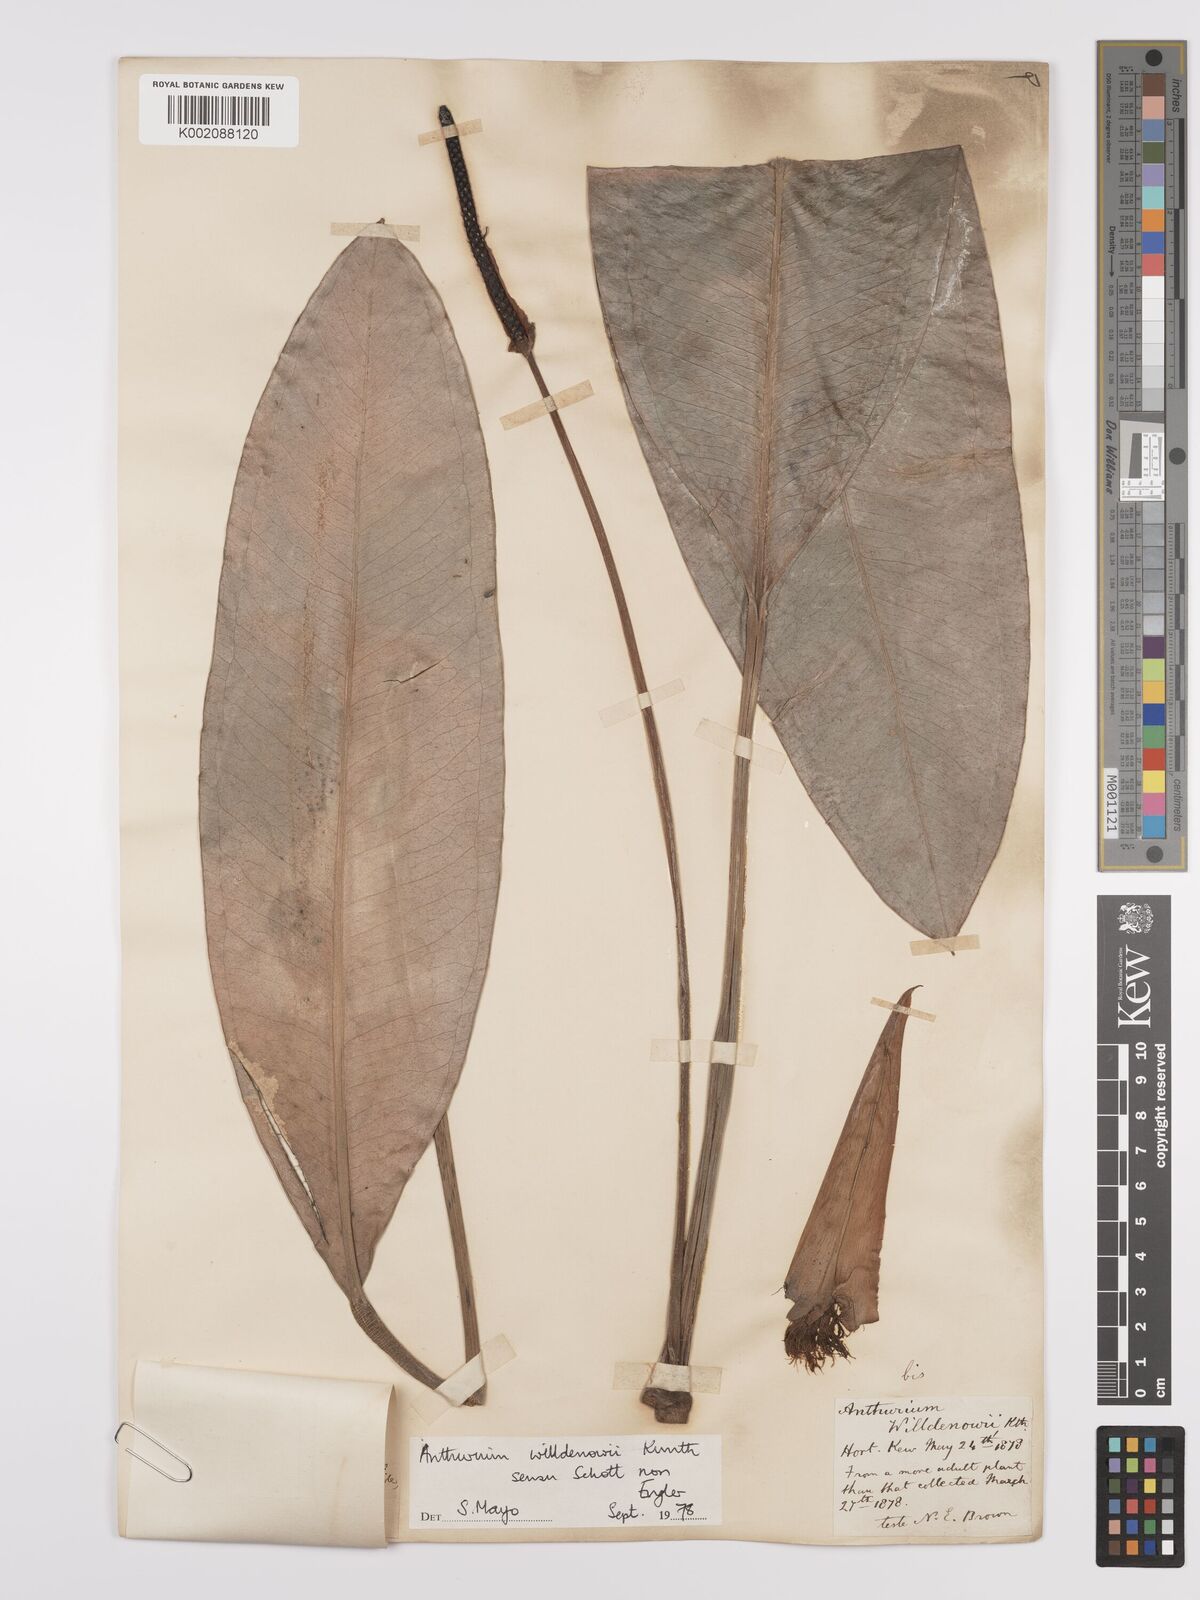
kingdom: Plantae
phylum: Tracheophyta
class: Liliopsida
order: Alismatales
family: Araceae
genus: Anthurium
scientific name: Anthurium willdenowii
